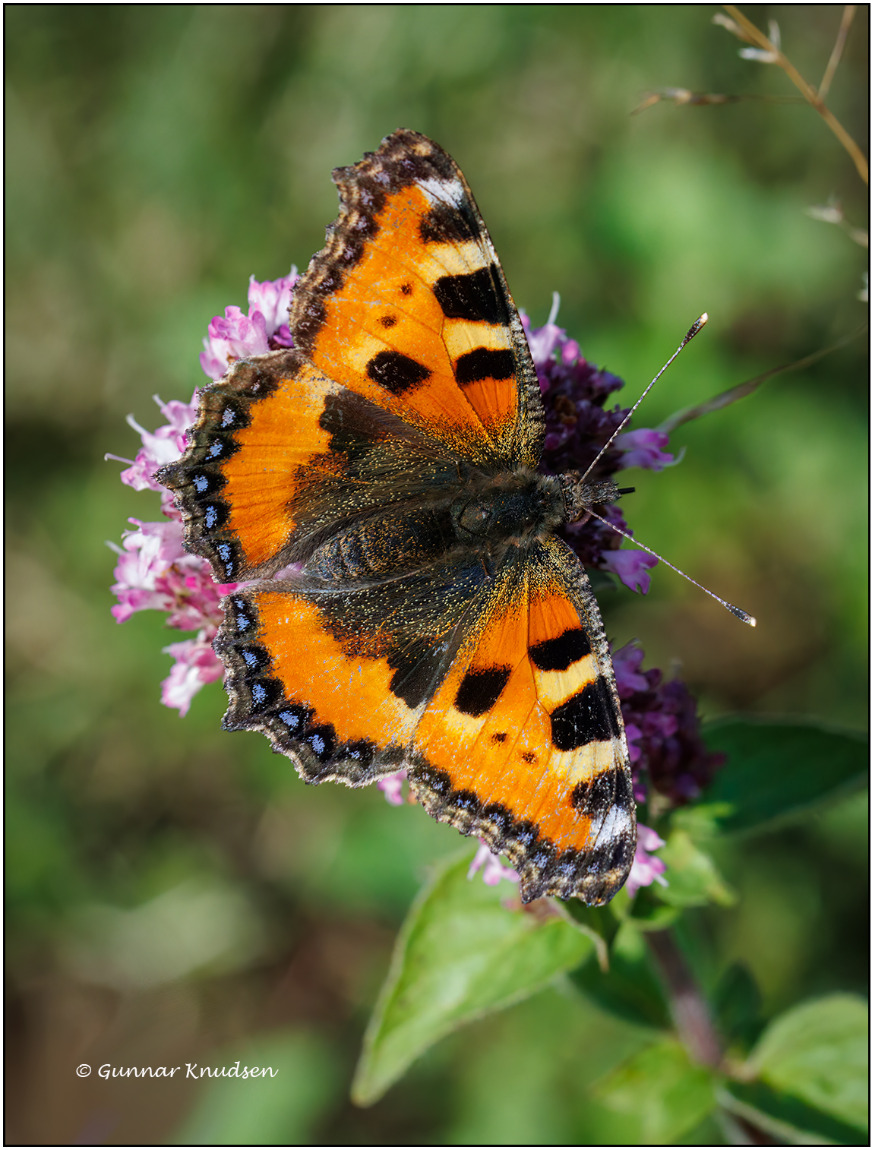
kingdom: Animalia
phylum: Arthropoda
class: Insecta
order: Lepidoptera
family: Nymphalidae
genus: Aglais
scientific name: Aglais urticae
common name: Nældens takvinge
